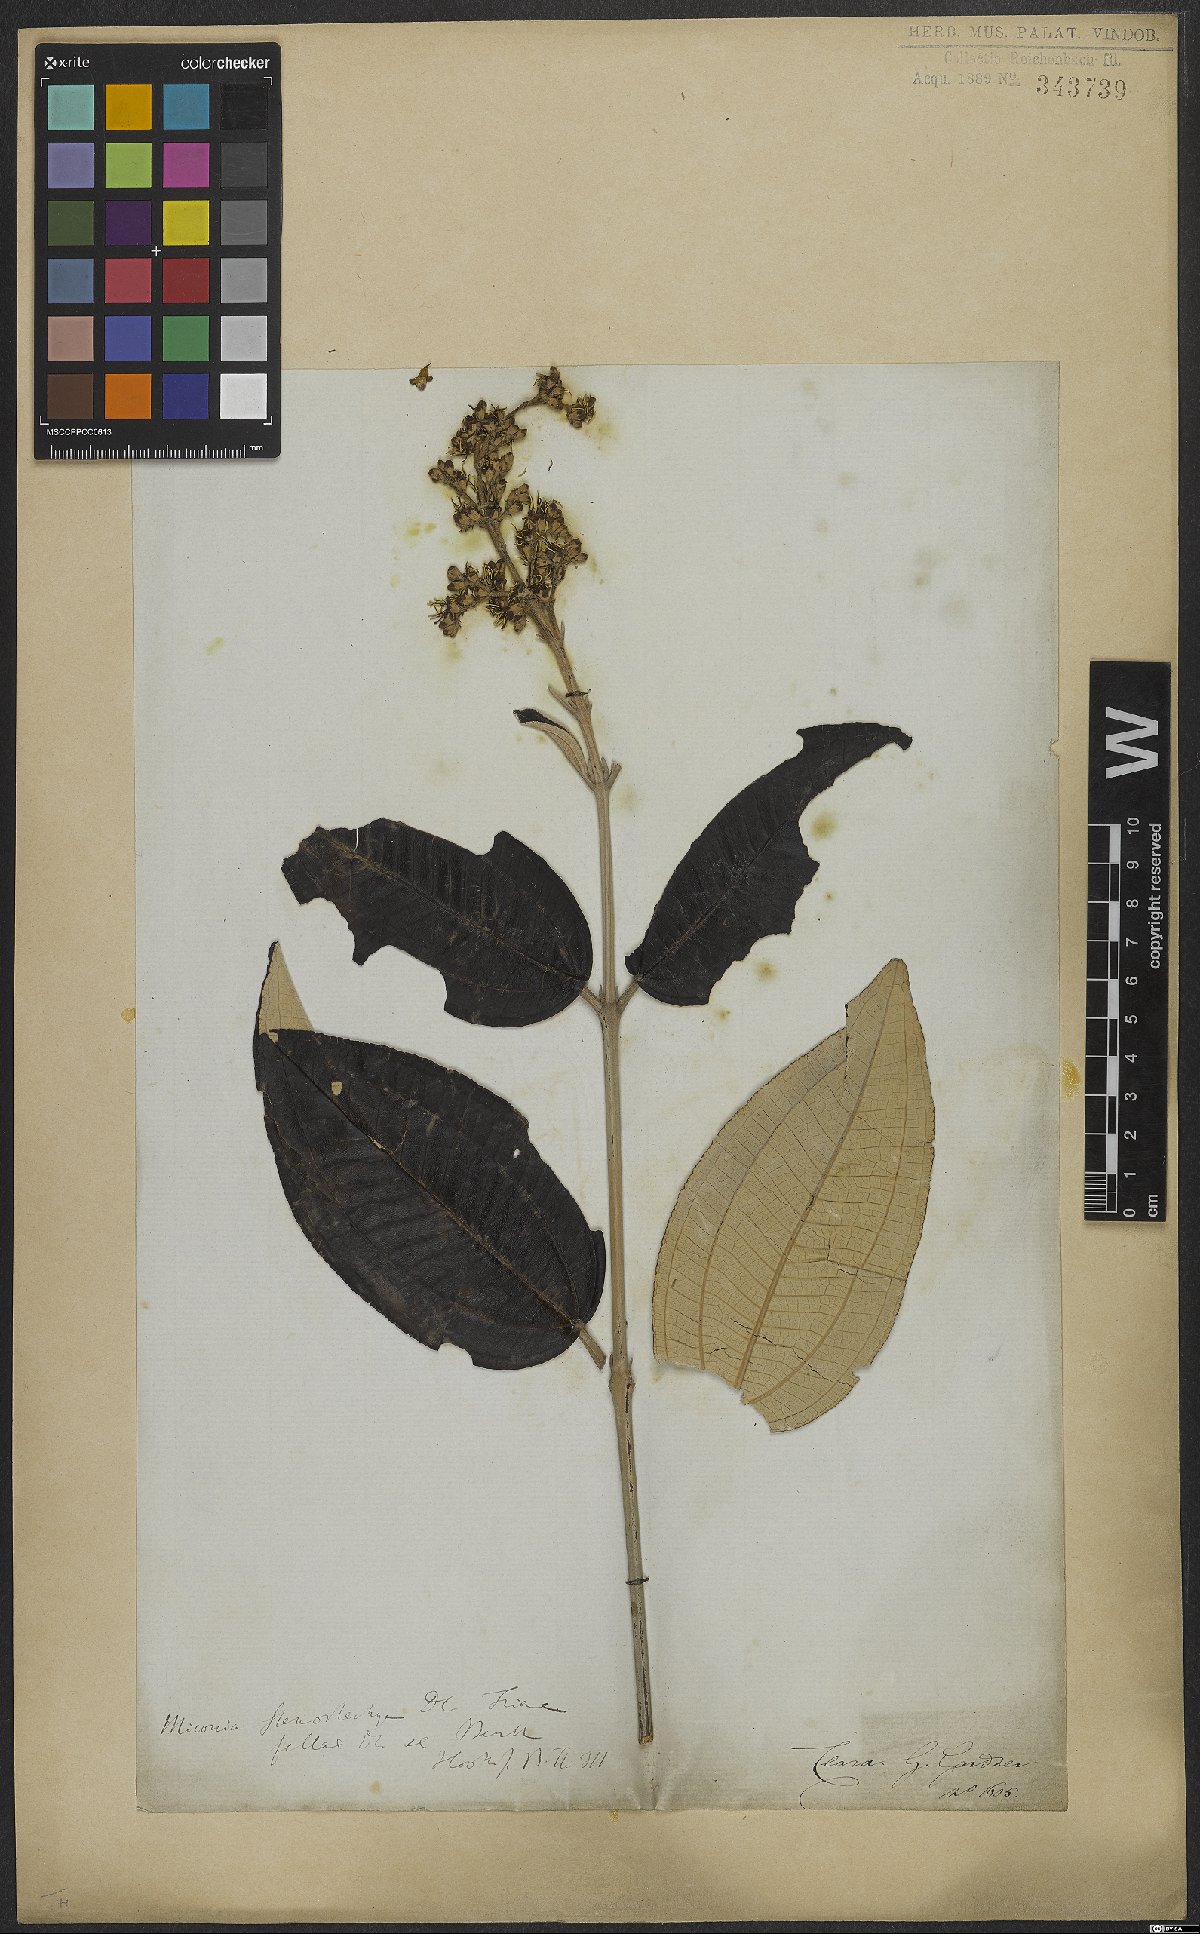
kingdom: Plantae
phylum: Tracheophyta
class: Magnoliopsida
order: Myrtales
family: Melastomataceae
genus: Miconia
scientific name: Miconia stenostachya
